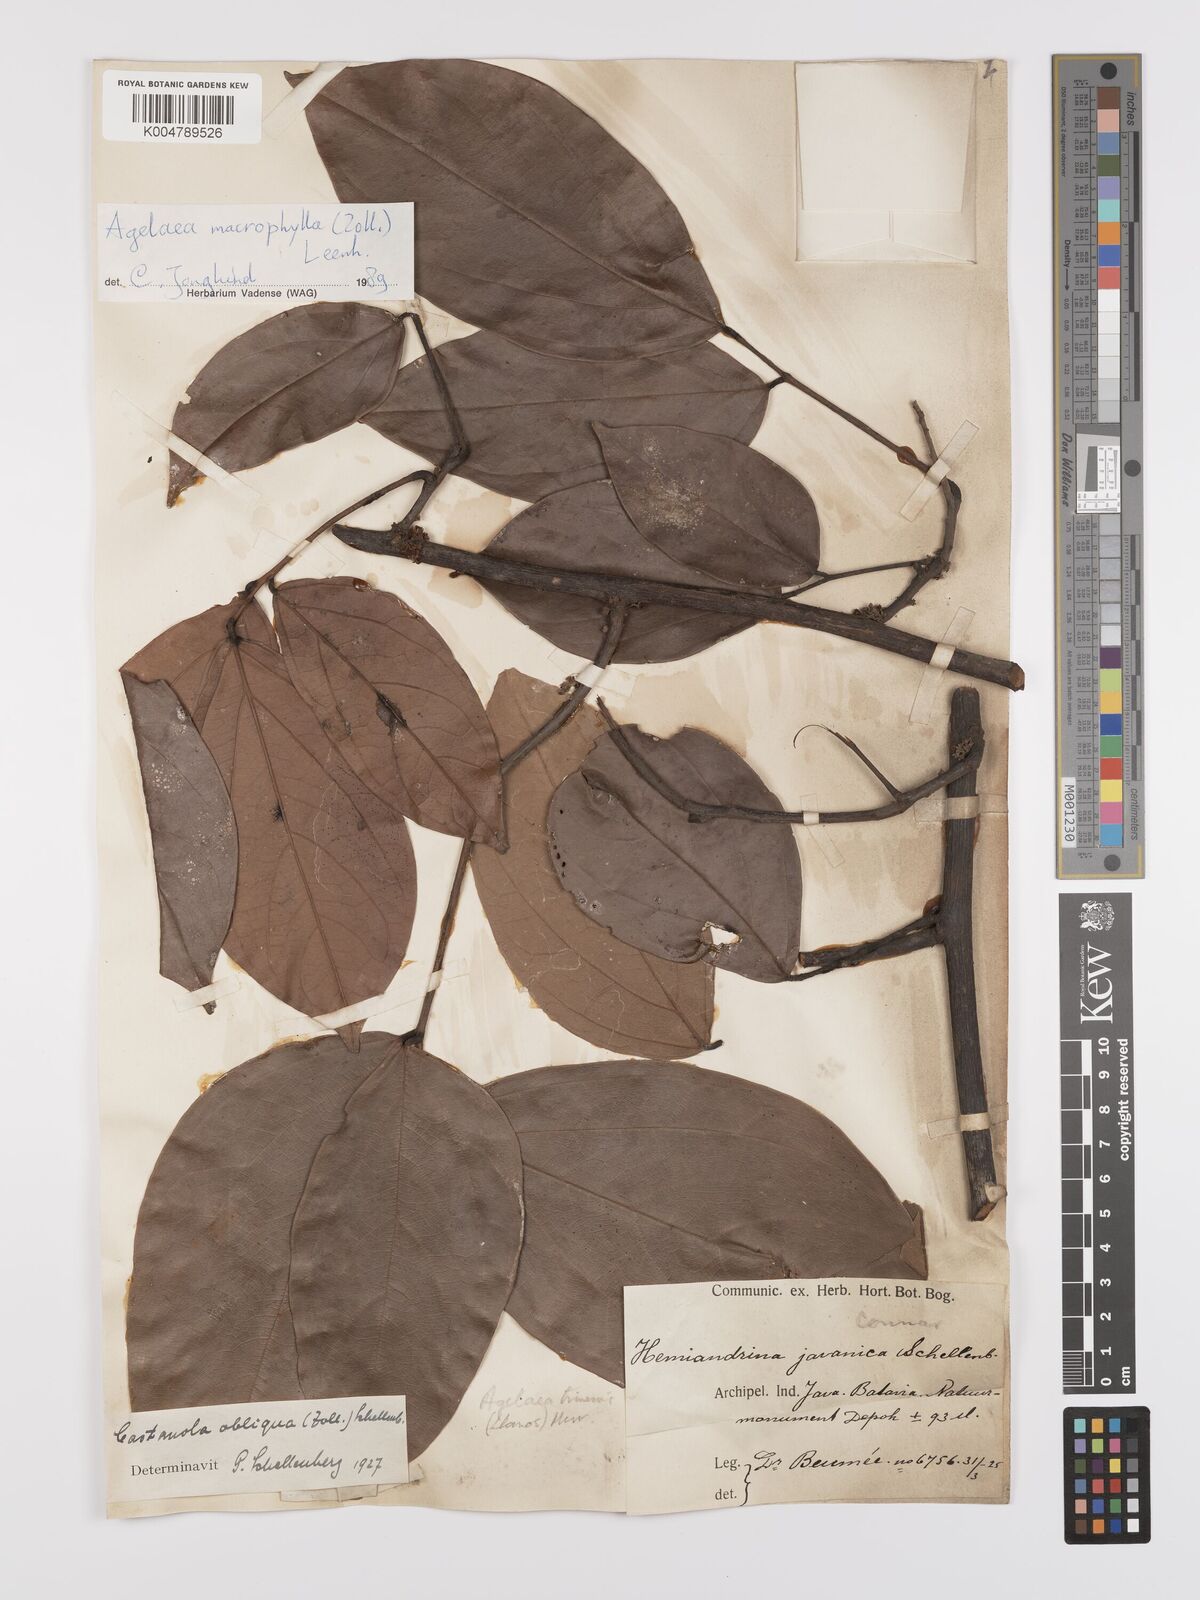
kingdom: Plantae
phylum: Tracheophyta
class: Magnoliopsida
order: Oxalidales
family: Connaraceae
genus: Agelaea
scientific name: Agelaea trinervis
